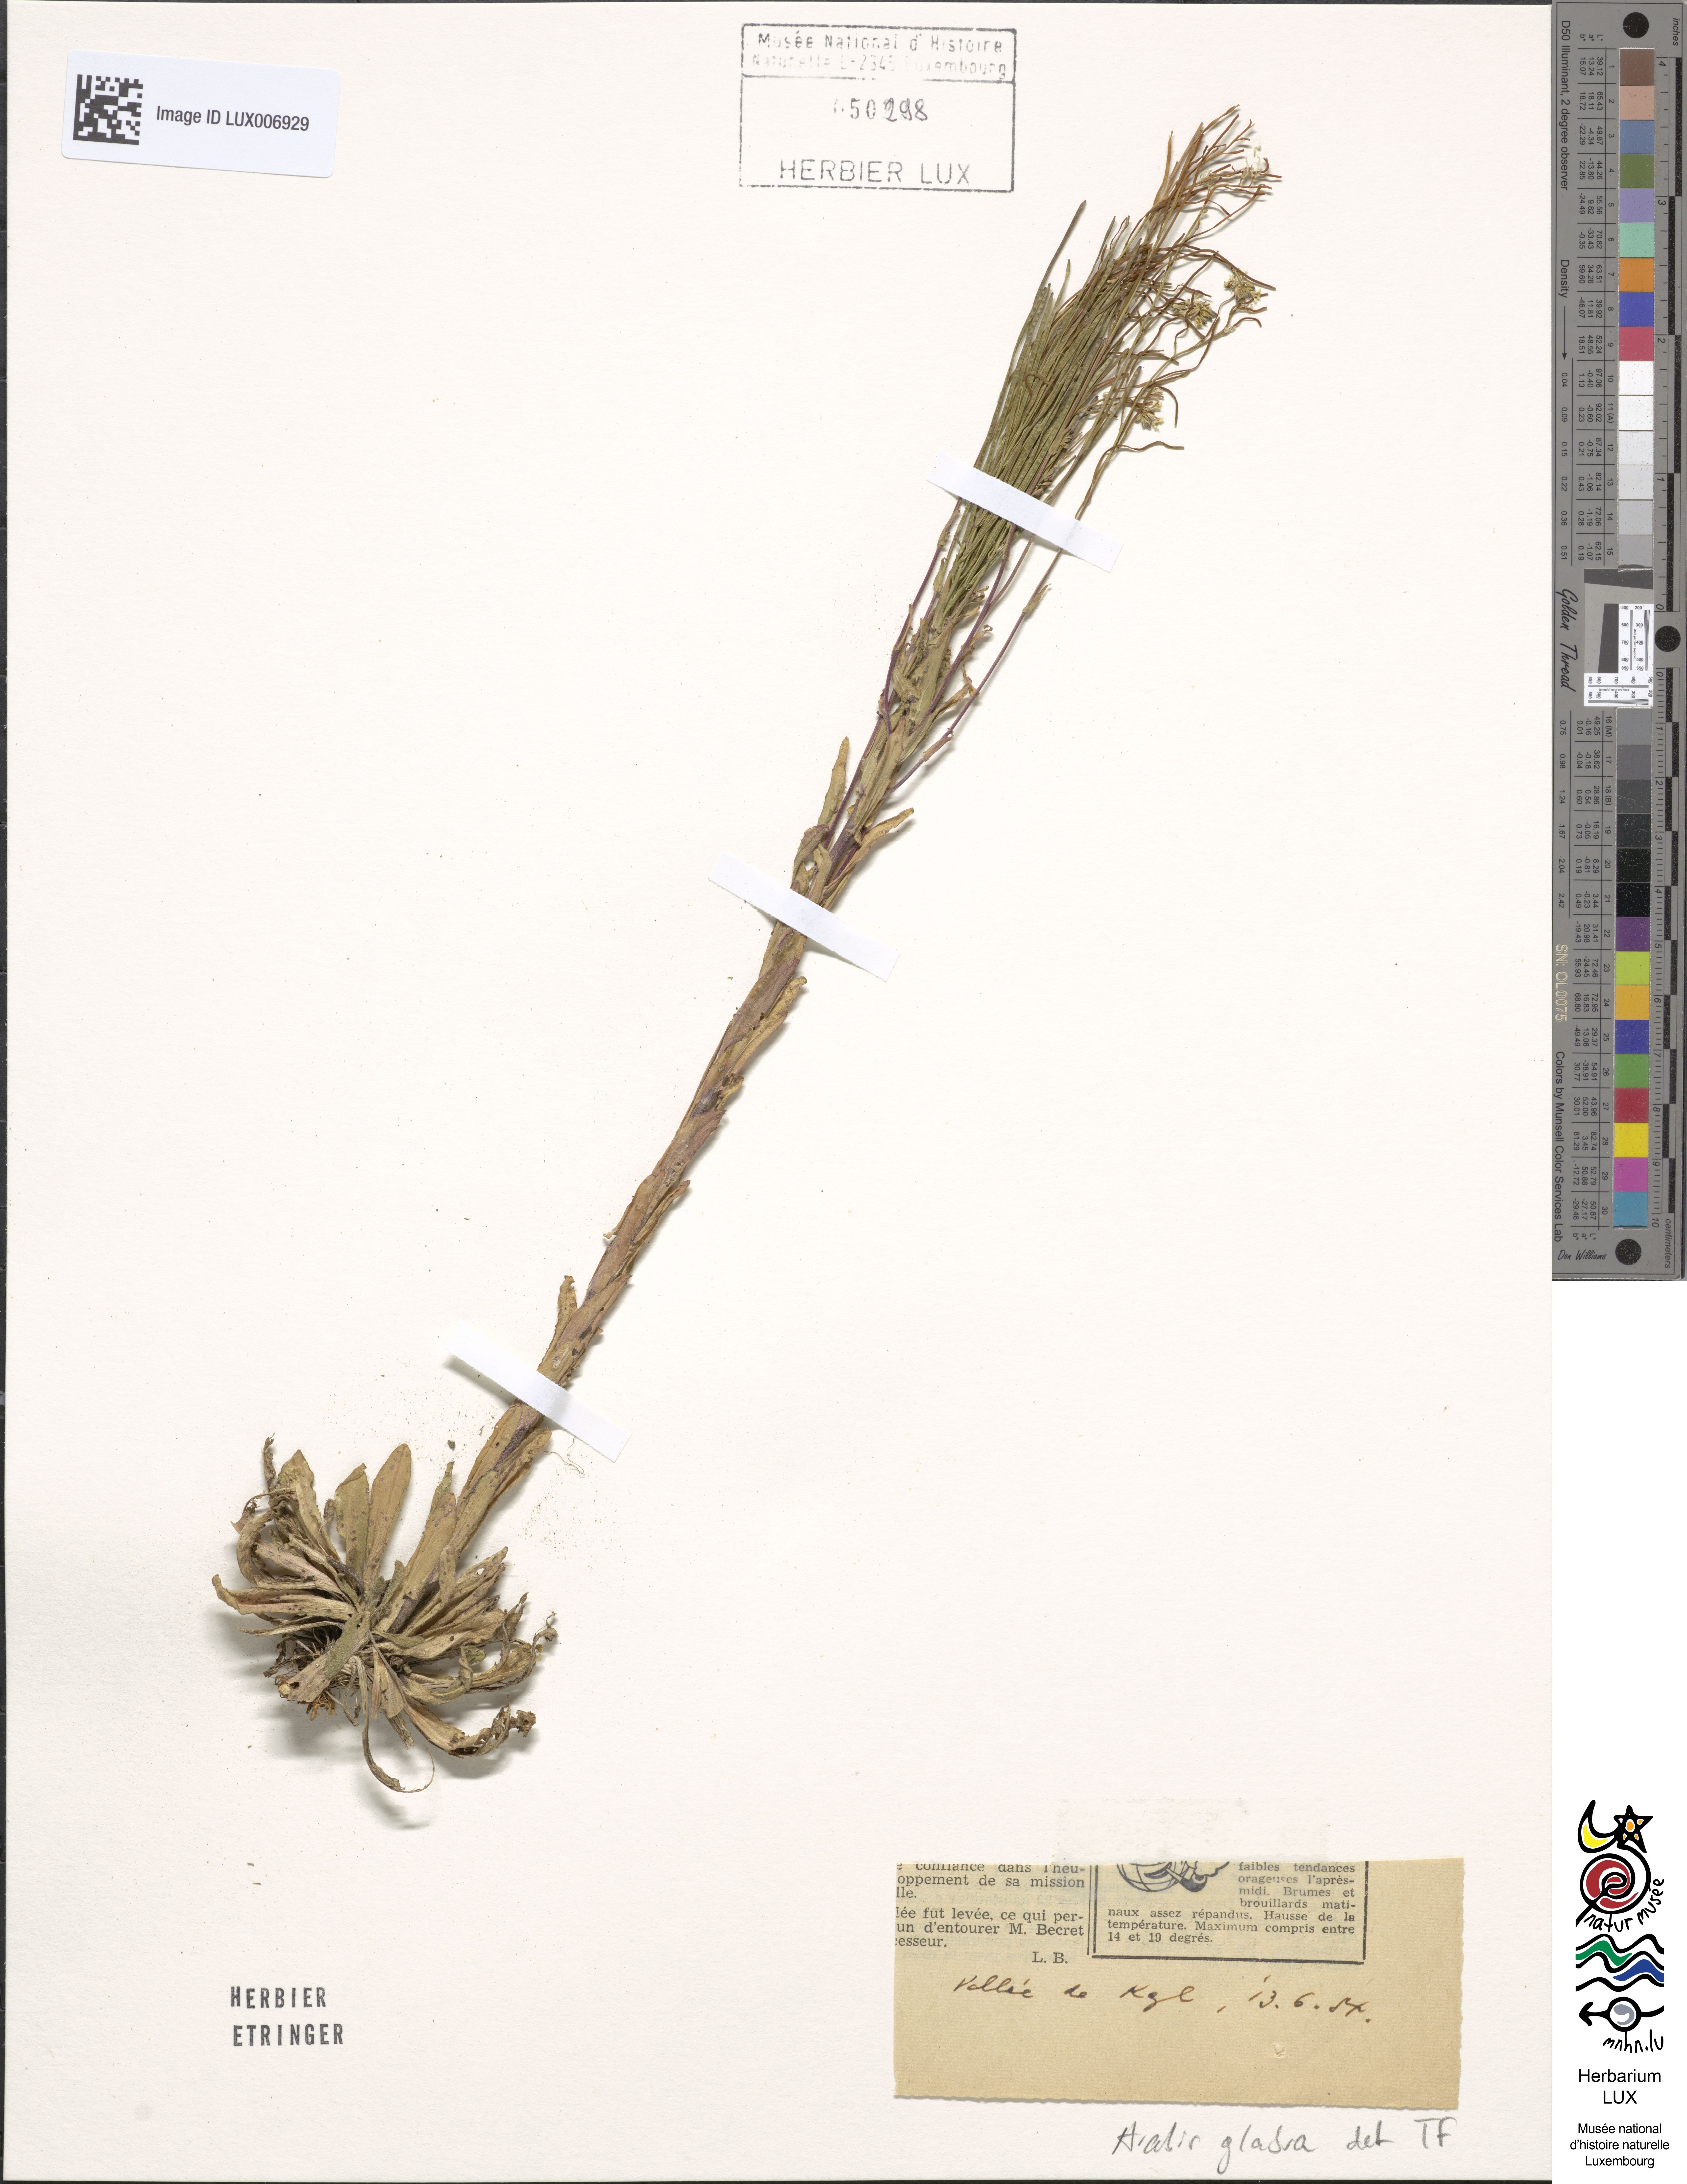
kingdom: Plantae
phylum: Tracheophyta
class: Magnoliopsida
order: Brassicales
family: Brassicaceae
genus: Turritis
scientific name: Turritis glabra
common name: Tower rockcress
